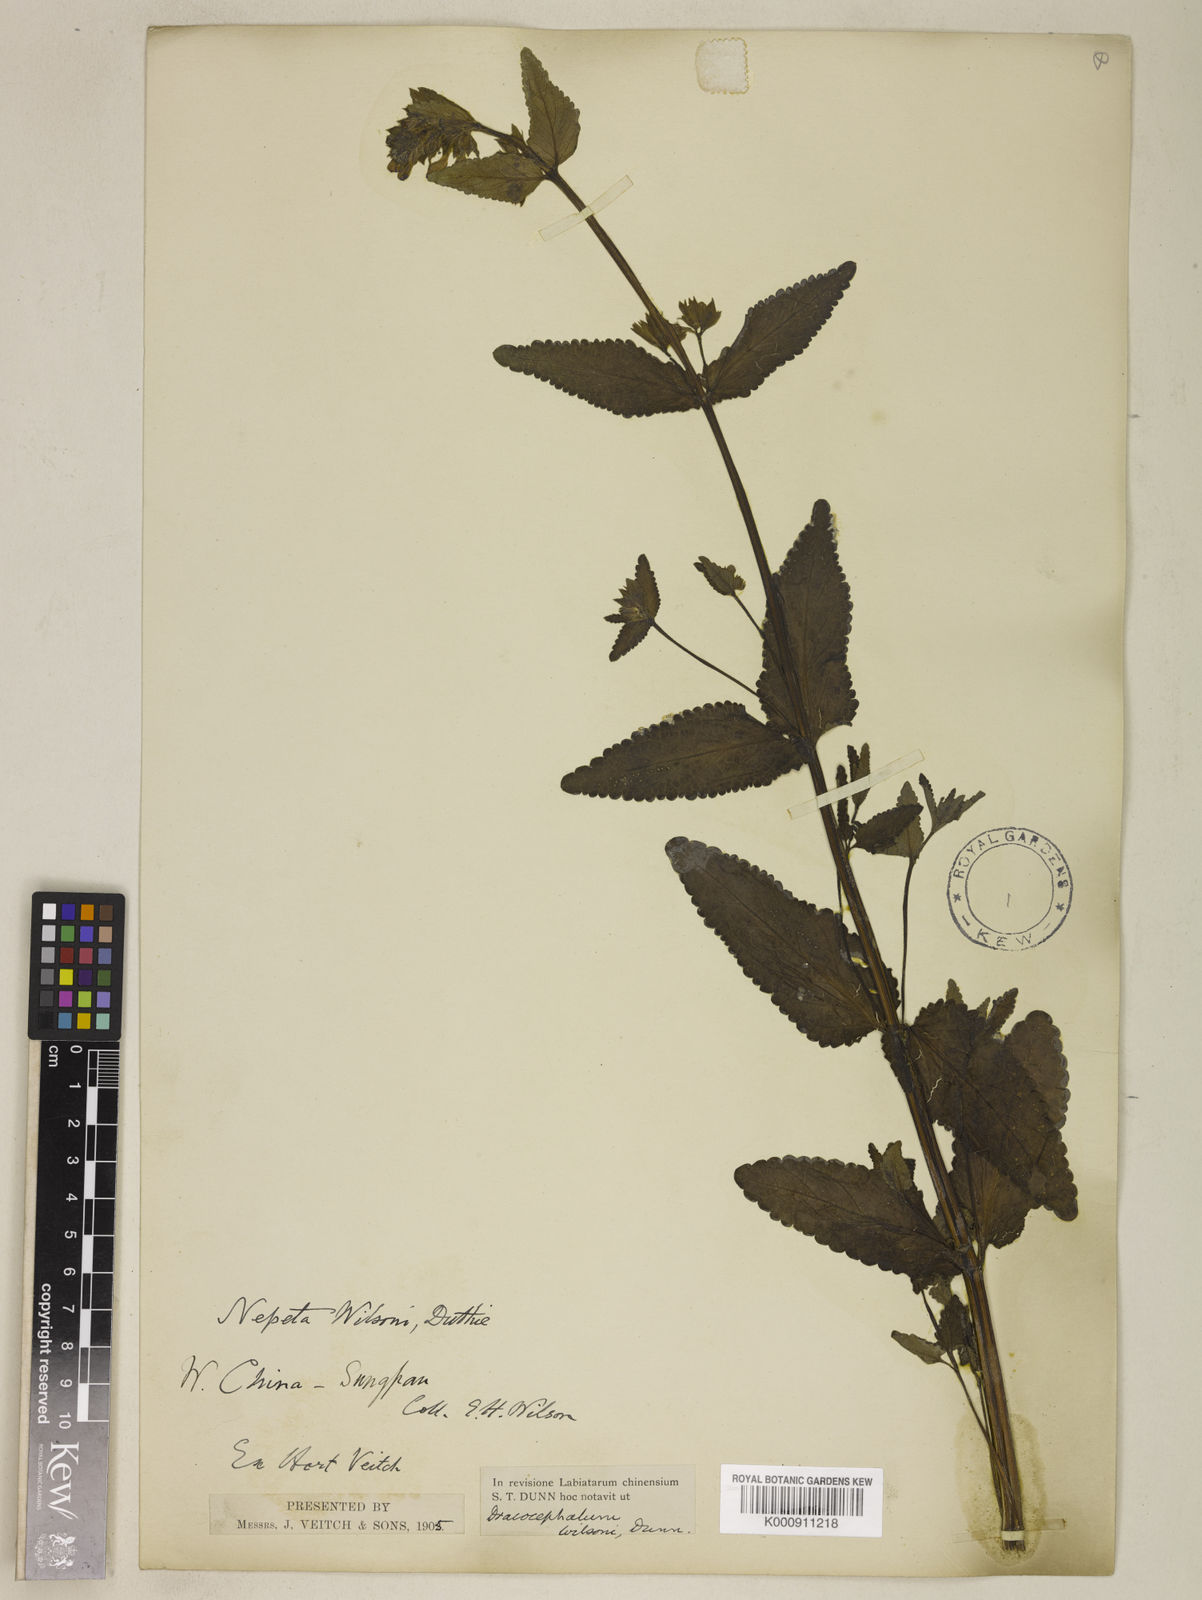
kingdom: Plantae
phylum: Tracheophyta
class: Magnoliopsida
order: Lamiales
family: Lamiaceae
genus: Nepeta
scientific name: Nepeta wilsonii
